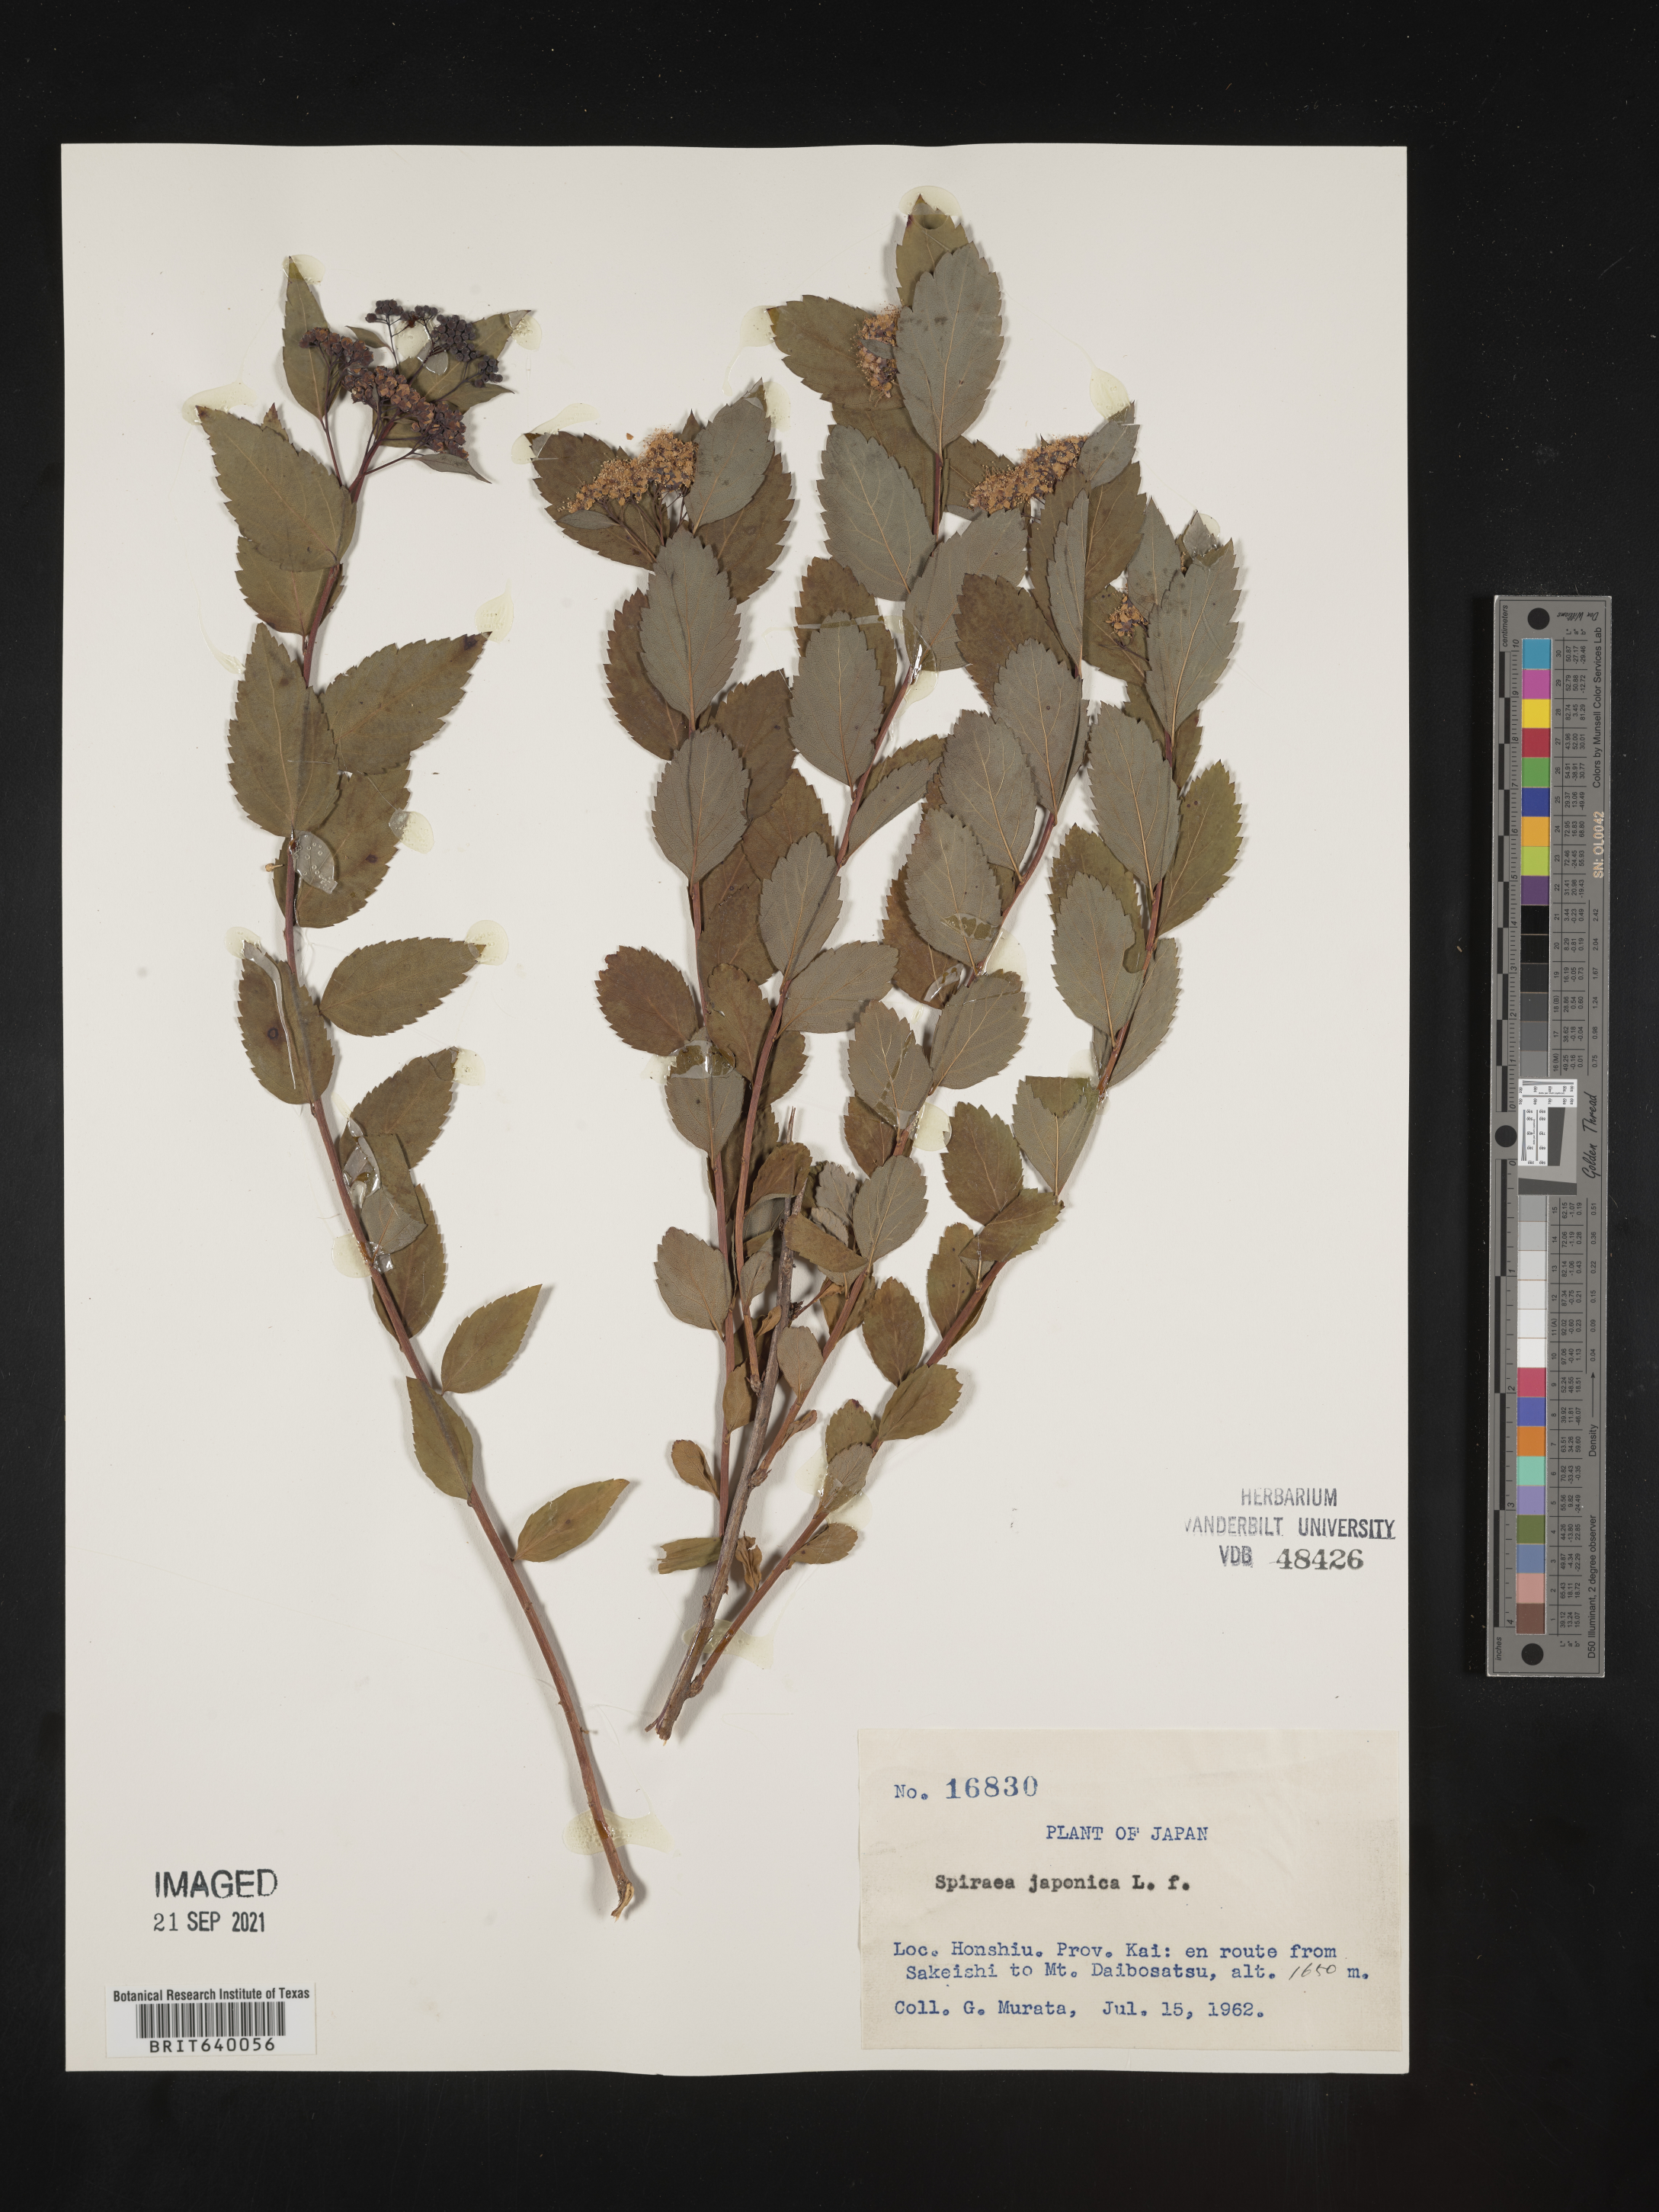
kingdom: Plantae
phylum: Tracheophyta
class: Magnoliopsida
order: Rosales
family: Rosaceae
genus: Spiraea
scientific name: Spiraea
